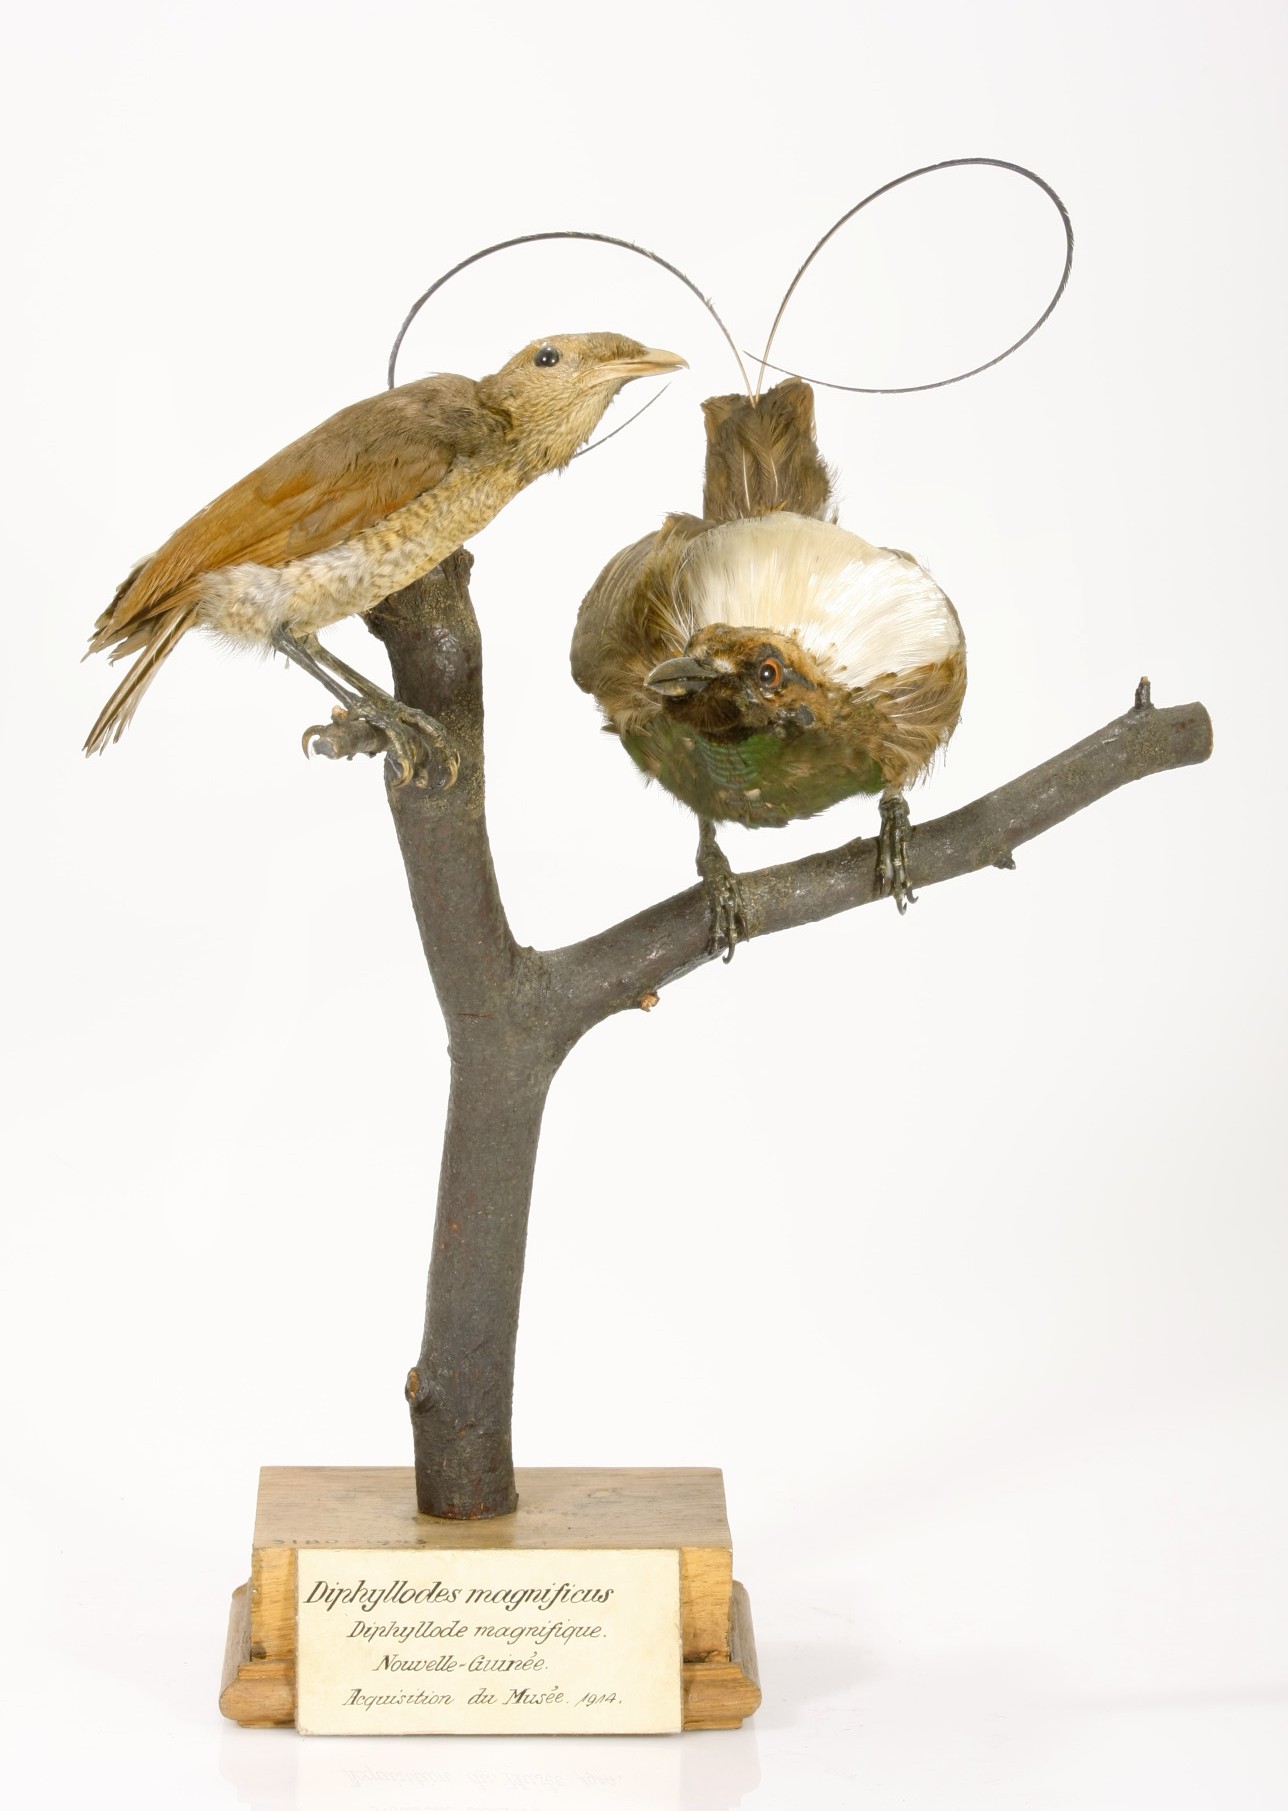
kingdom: Animalia
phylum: Chordata
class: Aves
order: Passeriformes
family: Paradisaeidae
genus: Diphyllodes
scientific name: Diphyllodes magnificus
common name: Magnificent bird-of-paradise
